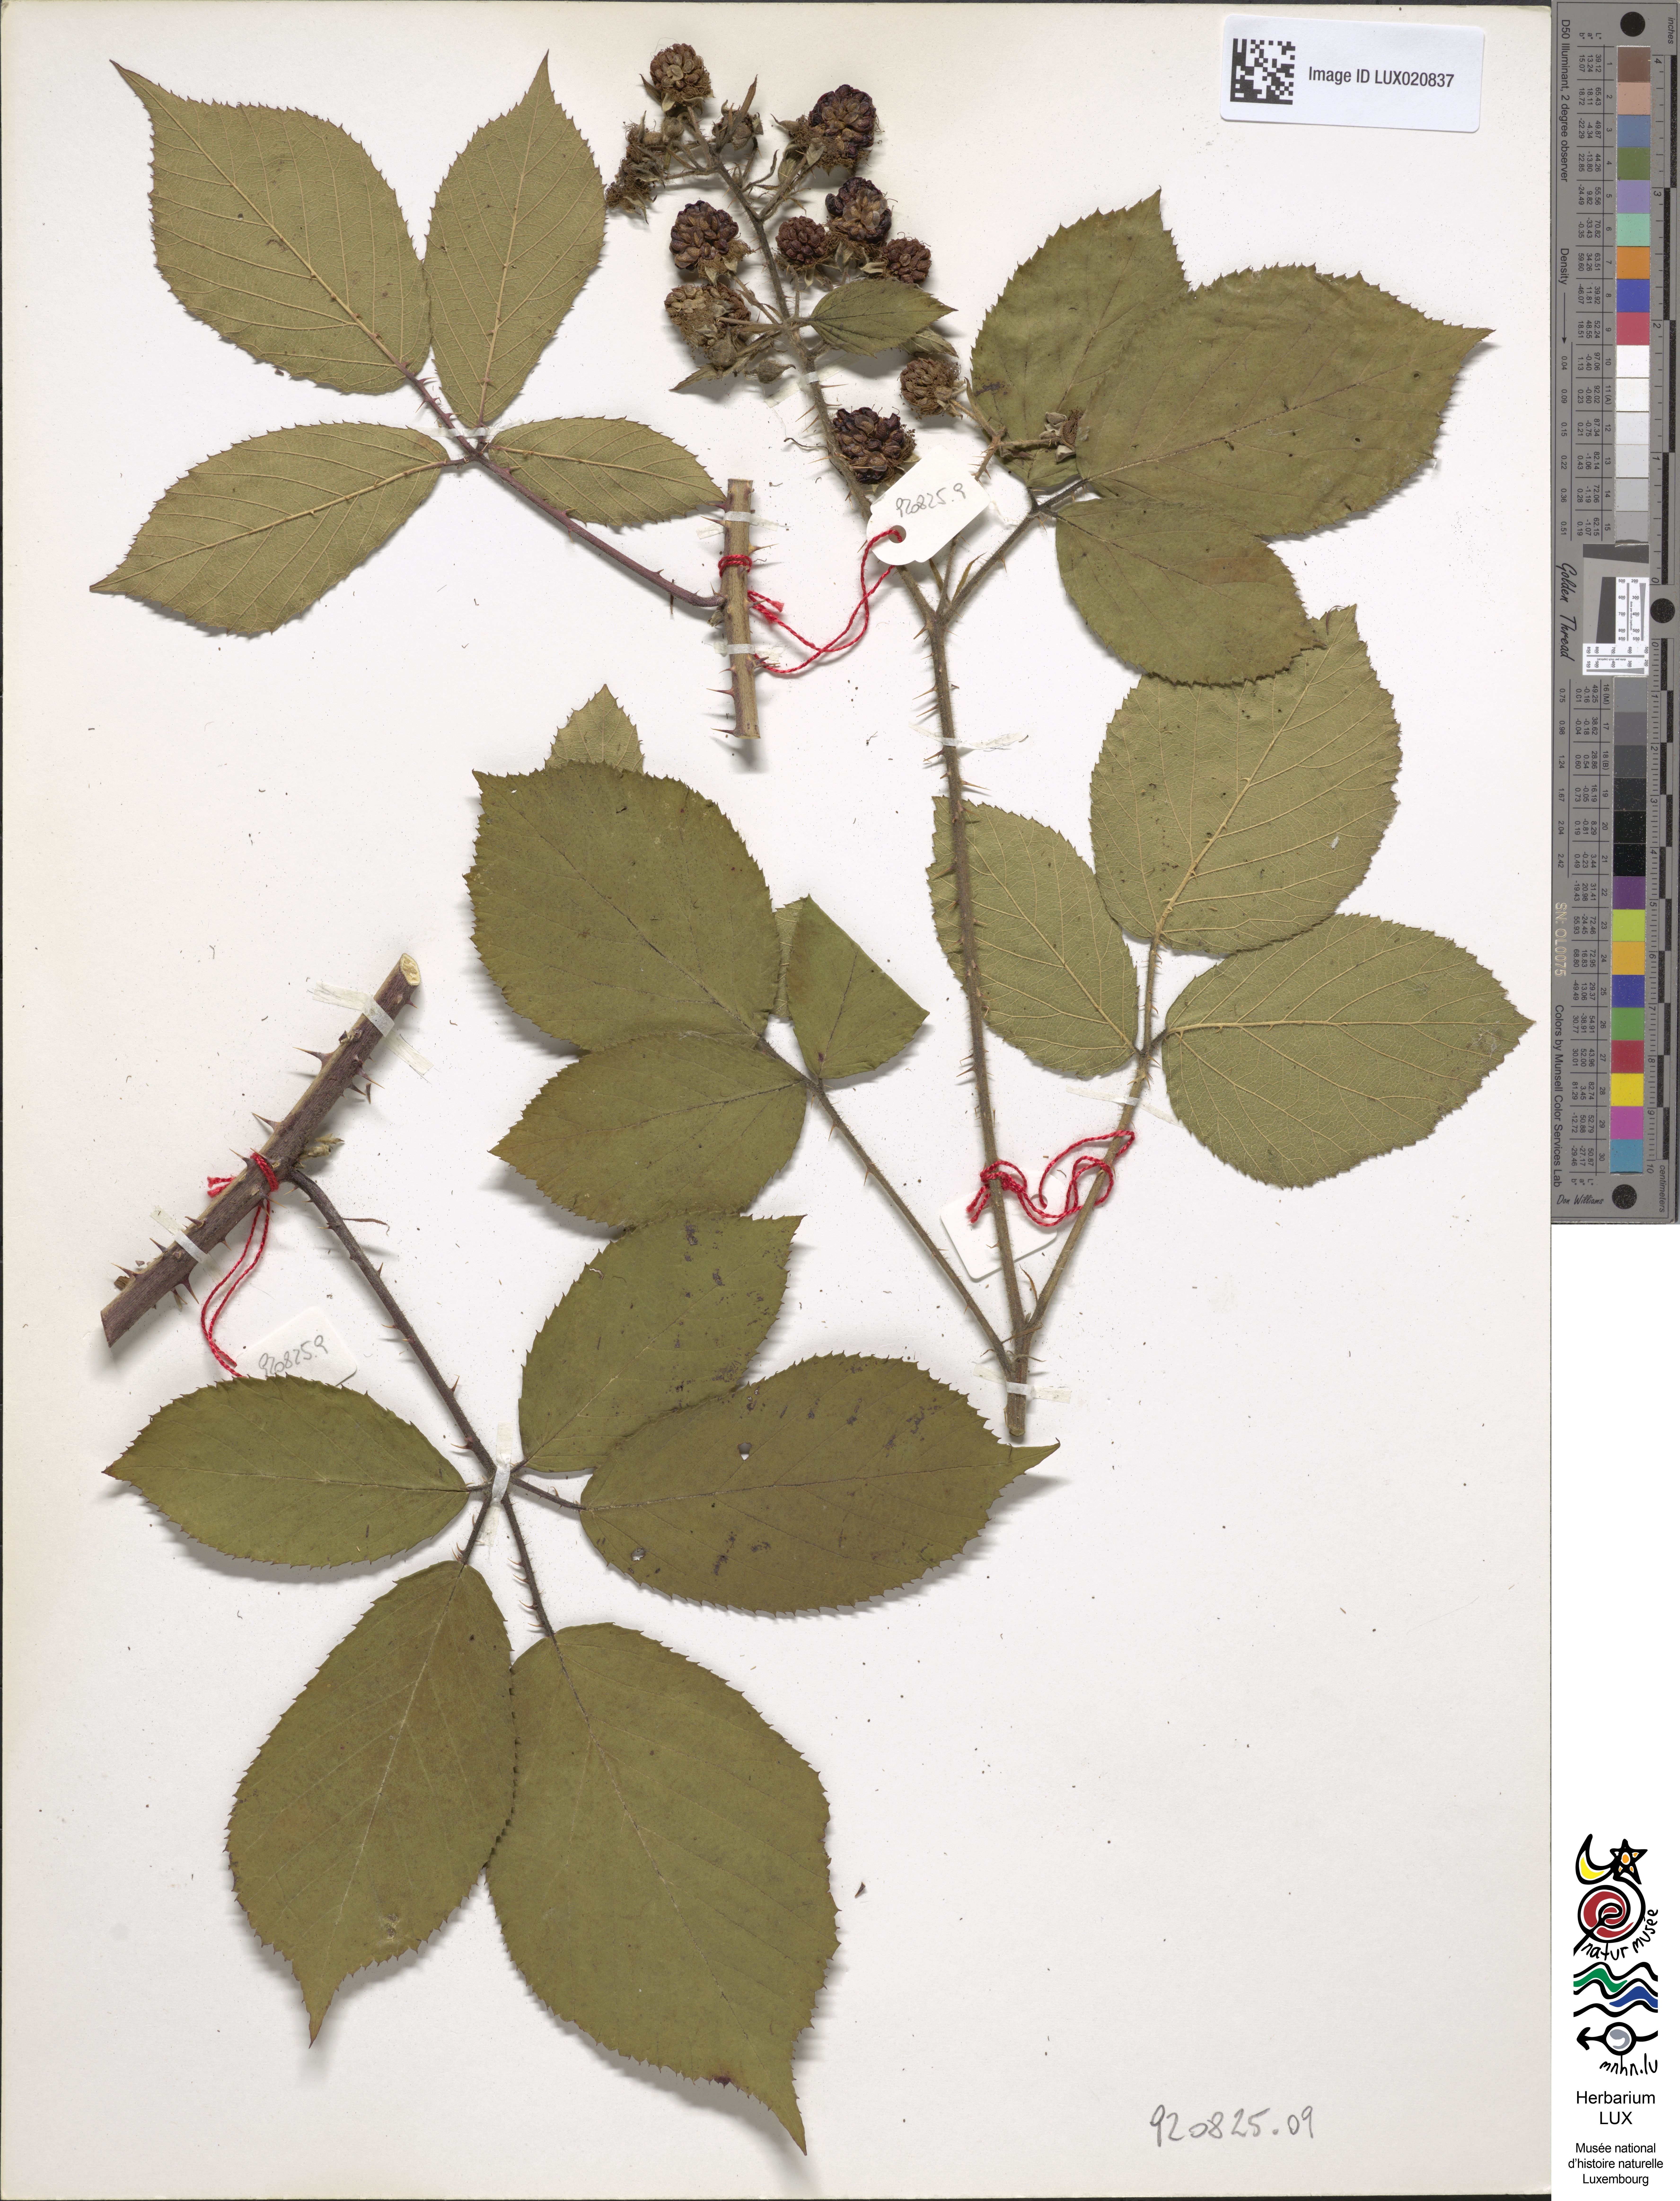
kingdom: Plantae
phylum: Tracheophyta
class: Magnoliopsida
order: Rosales
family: Rosaceae
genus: Rubus
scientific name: Rubus oblongifolius
